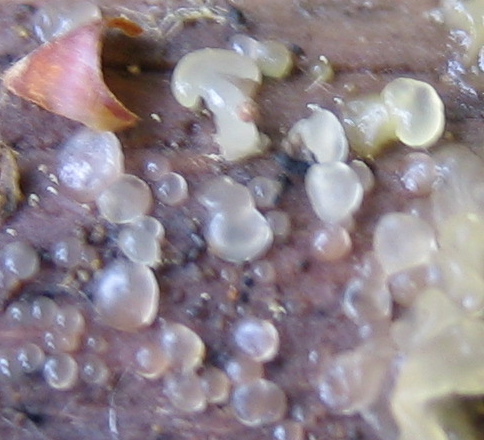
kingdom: Fungi
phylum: Basidiomycota
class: Dacrymycetes
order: Dacrymycetales
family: Dacrymycetaceae
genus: Dacrymyces
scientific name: Dacrymyces
